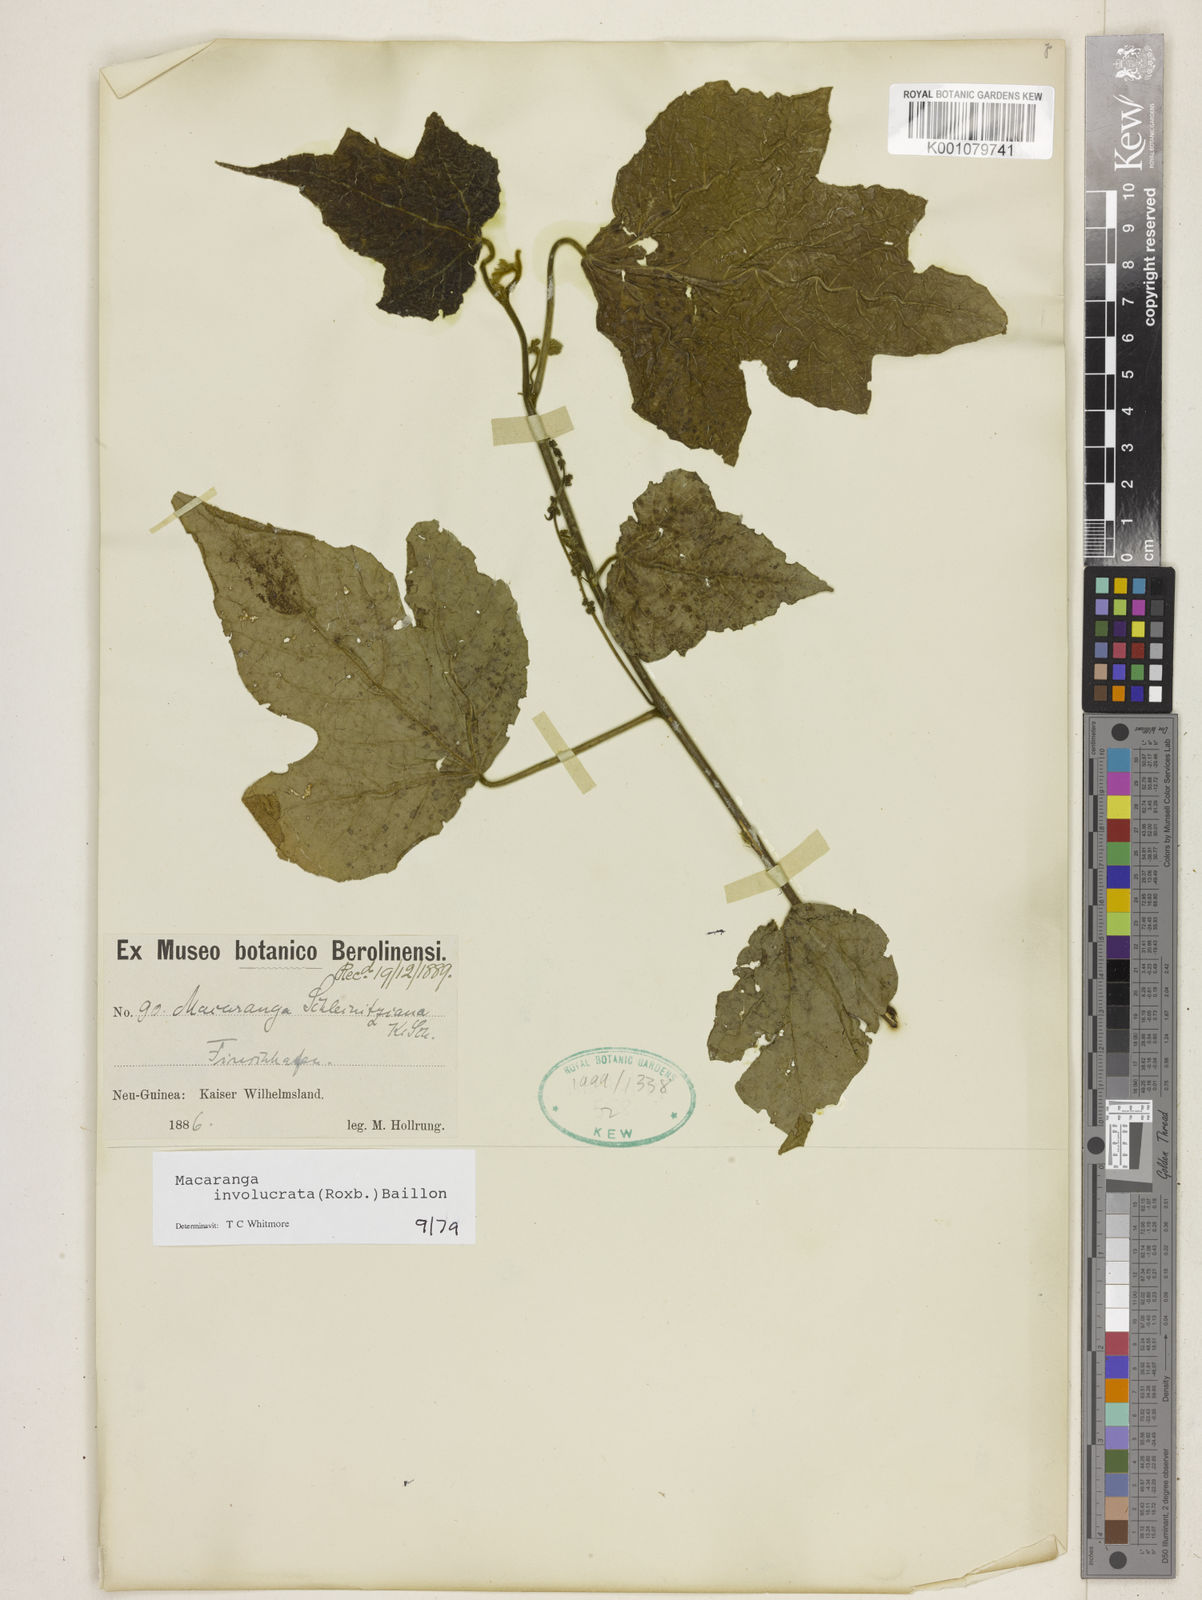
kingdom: Plantae
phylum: Tracheophyta
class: Magnoliopsida
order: Malpighiales
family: Euphorbiaceae
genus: Macaranga
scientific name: Macaranga involucrata
